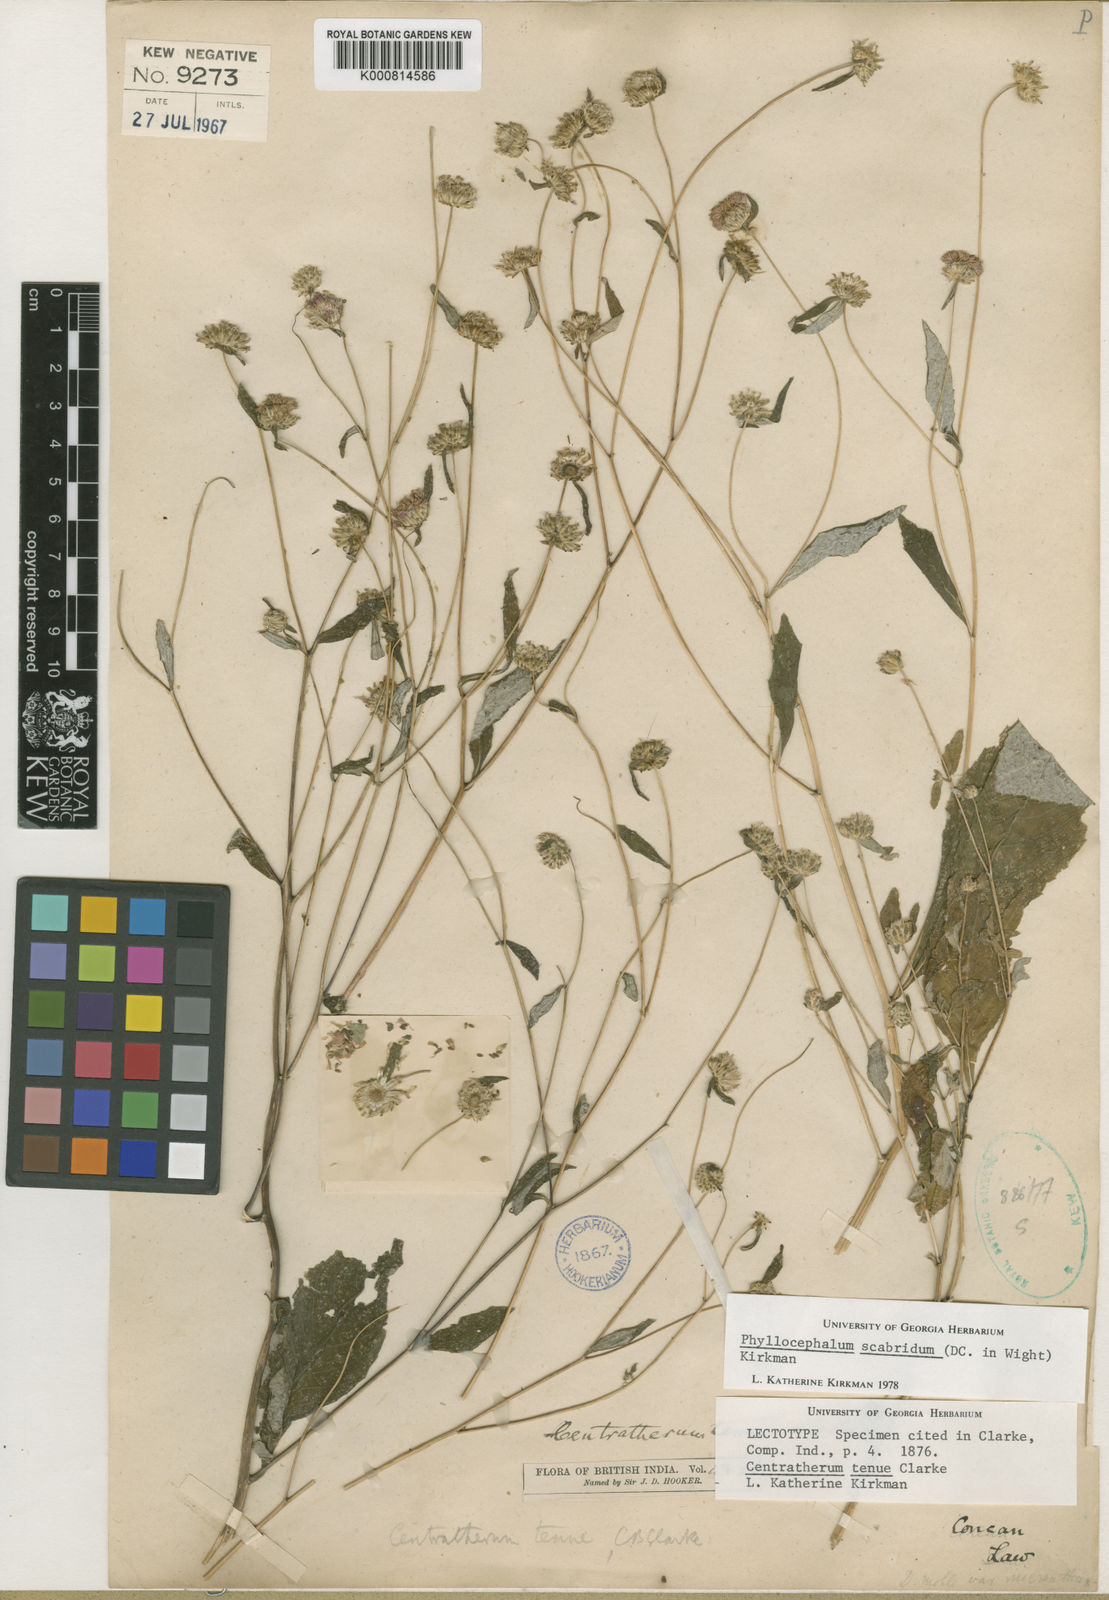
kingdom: Plantae
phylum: Tracheophyta
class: Magnoliopsida
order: Asterales
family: Asteraceae
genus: Phyllocephalum
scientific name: Phyllocephalum scabridum
